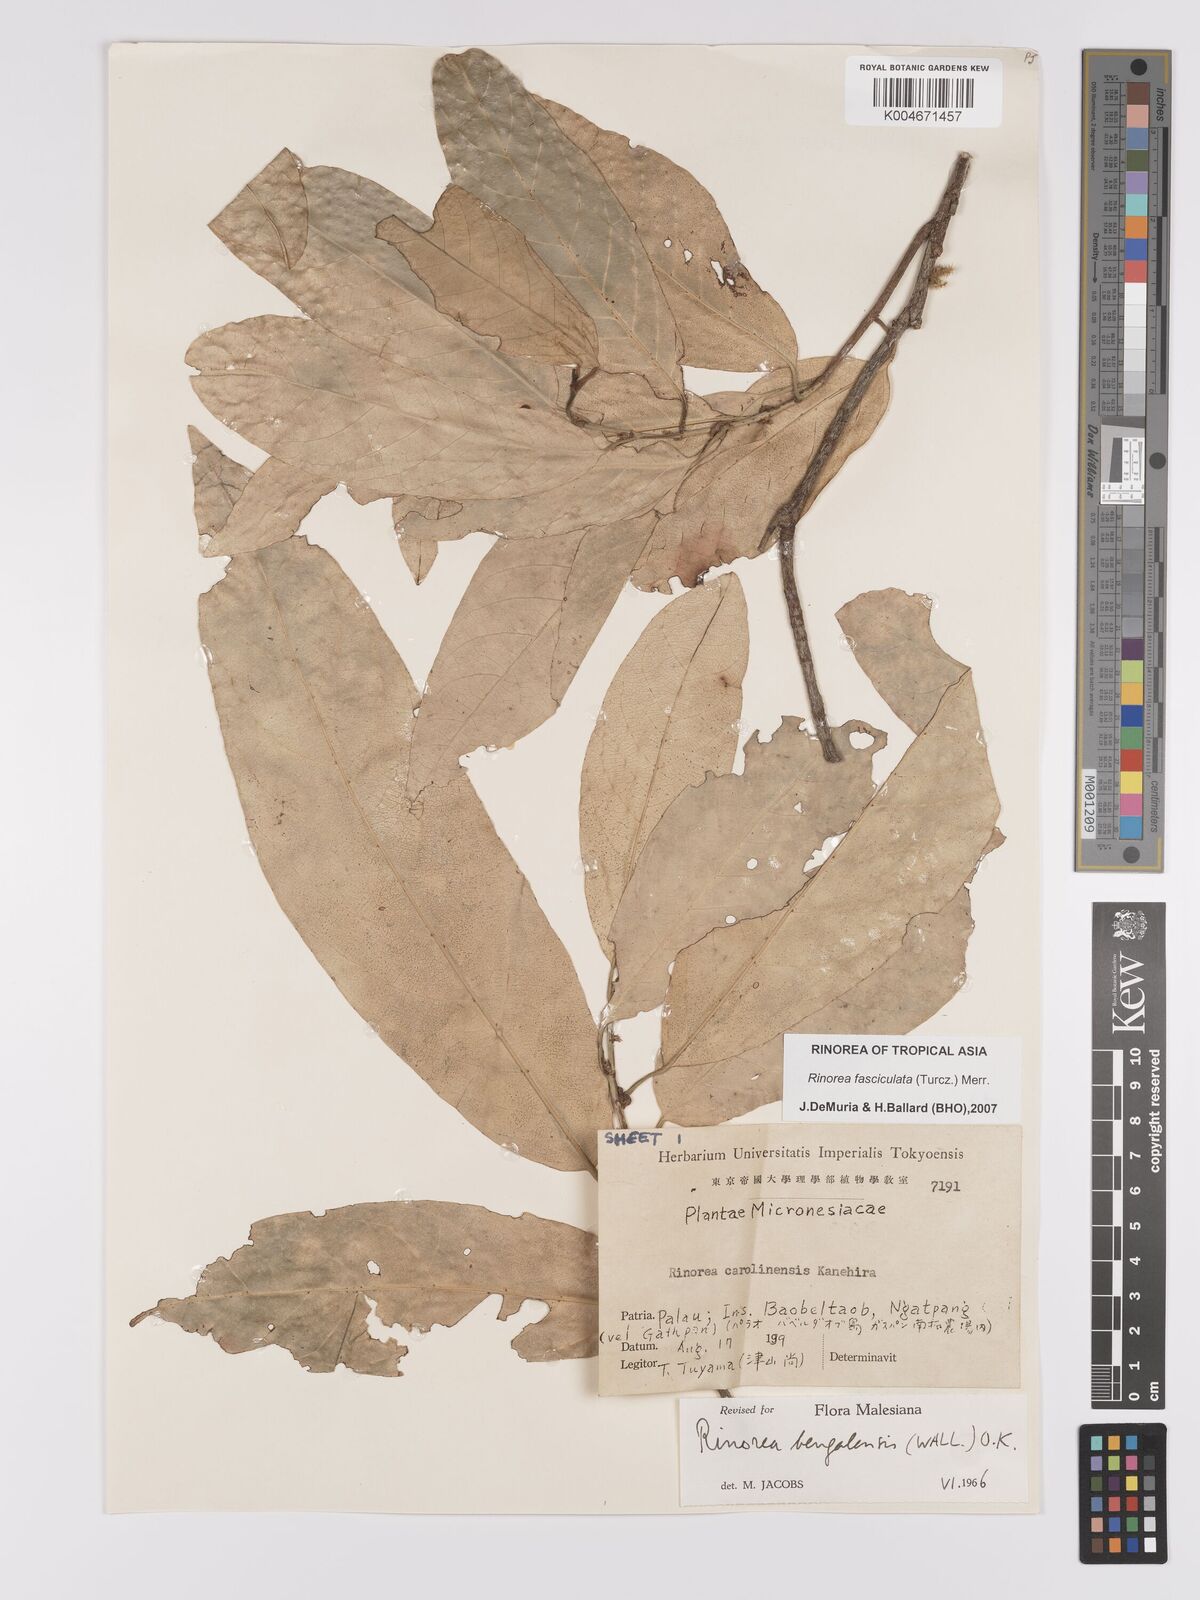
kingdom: Plantae
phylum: Tracheophyta
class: Magnoliopsida
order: Malpighiales
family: Violaceae
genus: Rinorea
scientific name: Rinorea bengalensis
